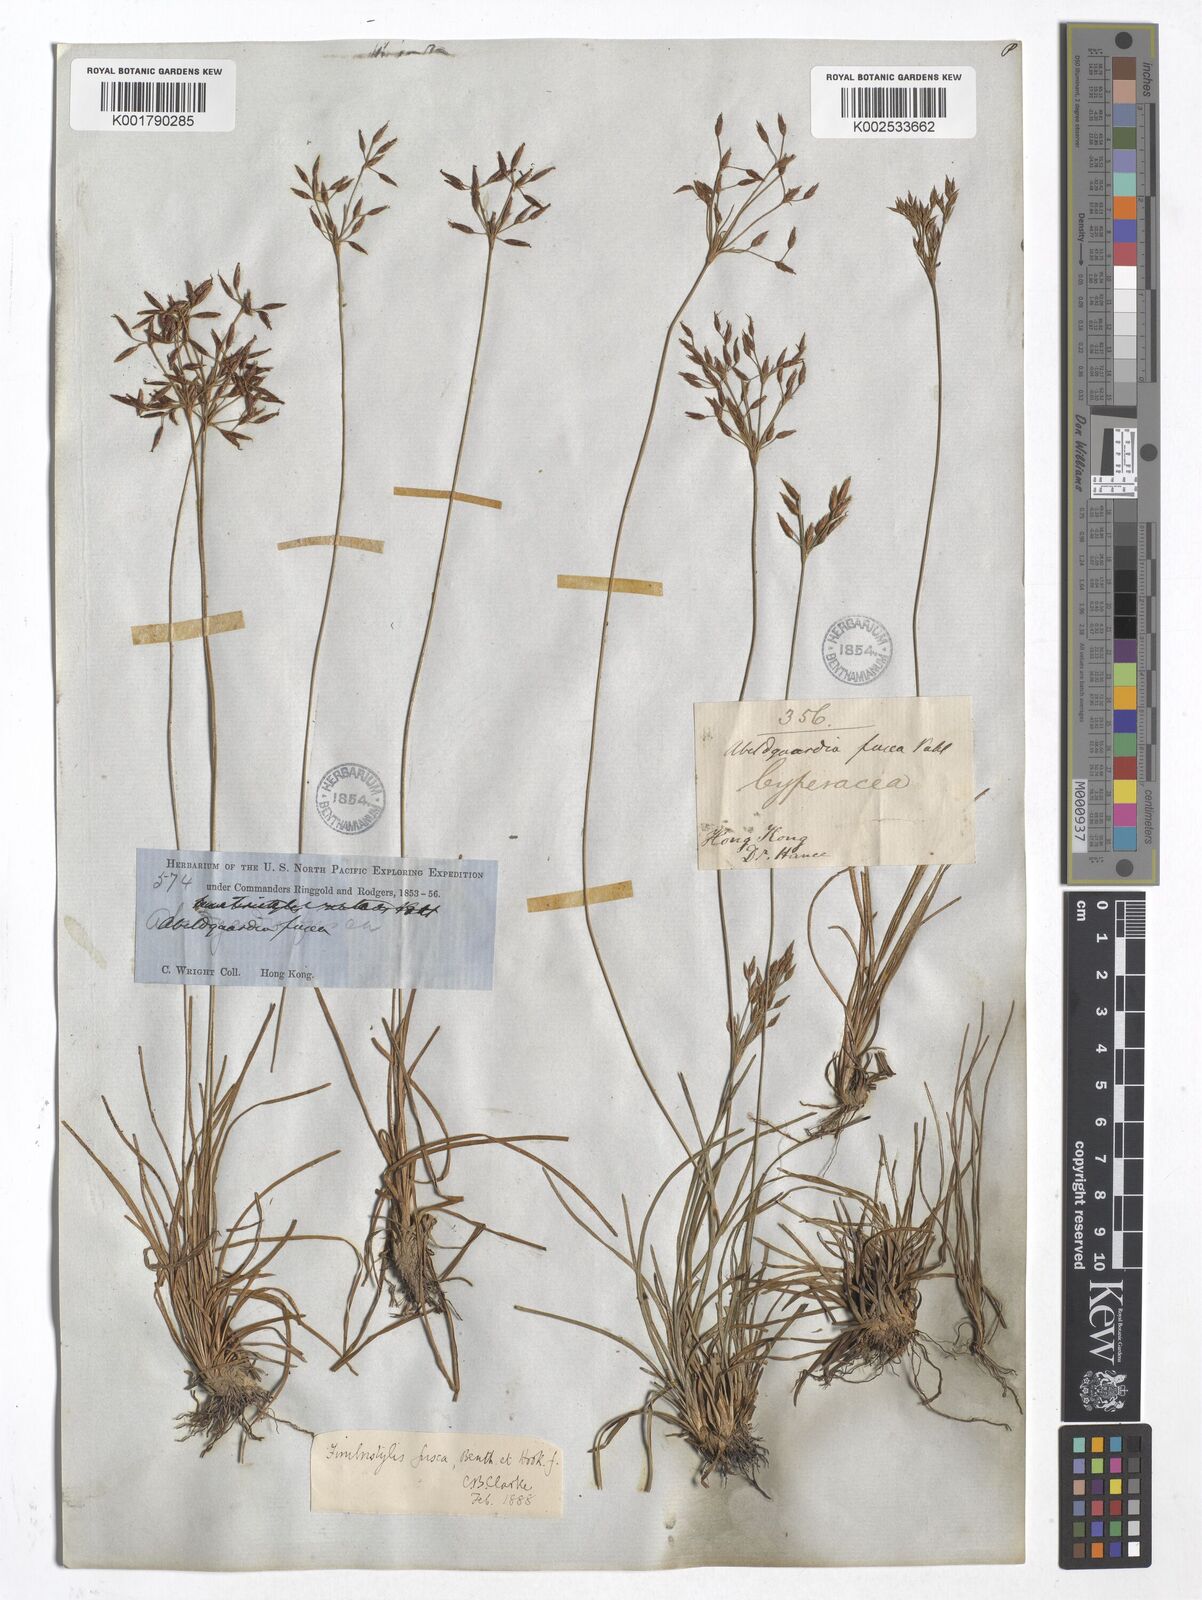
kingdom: Plantae
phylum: Tracheophyta
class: Liliopsida
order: Poales
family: Cyperaceae
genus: Fimbristylis
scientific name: Fimbristylis fusca
